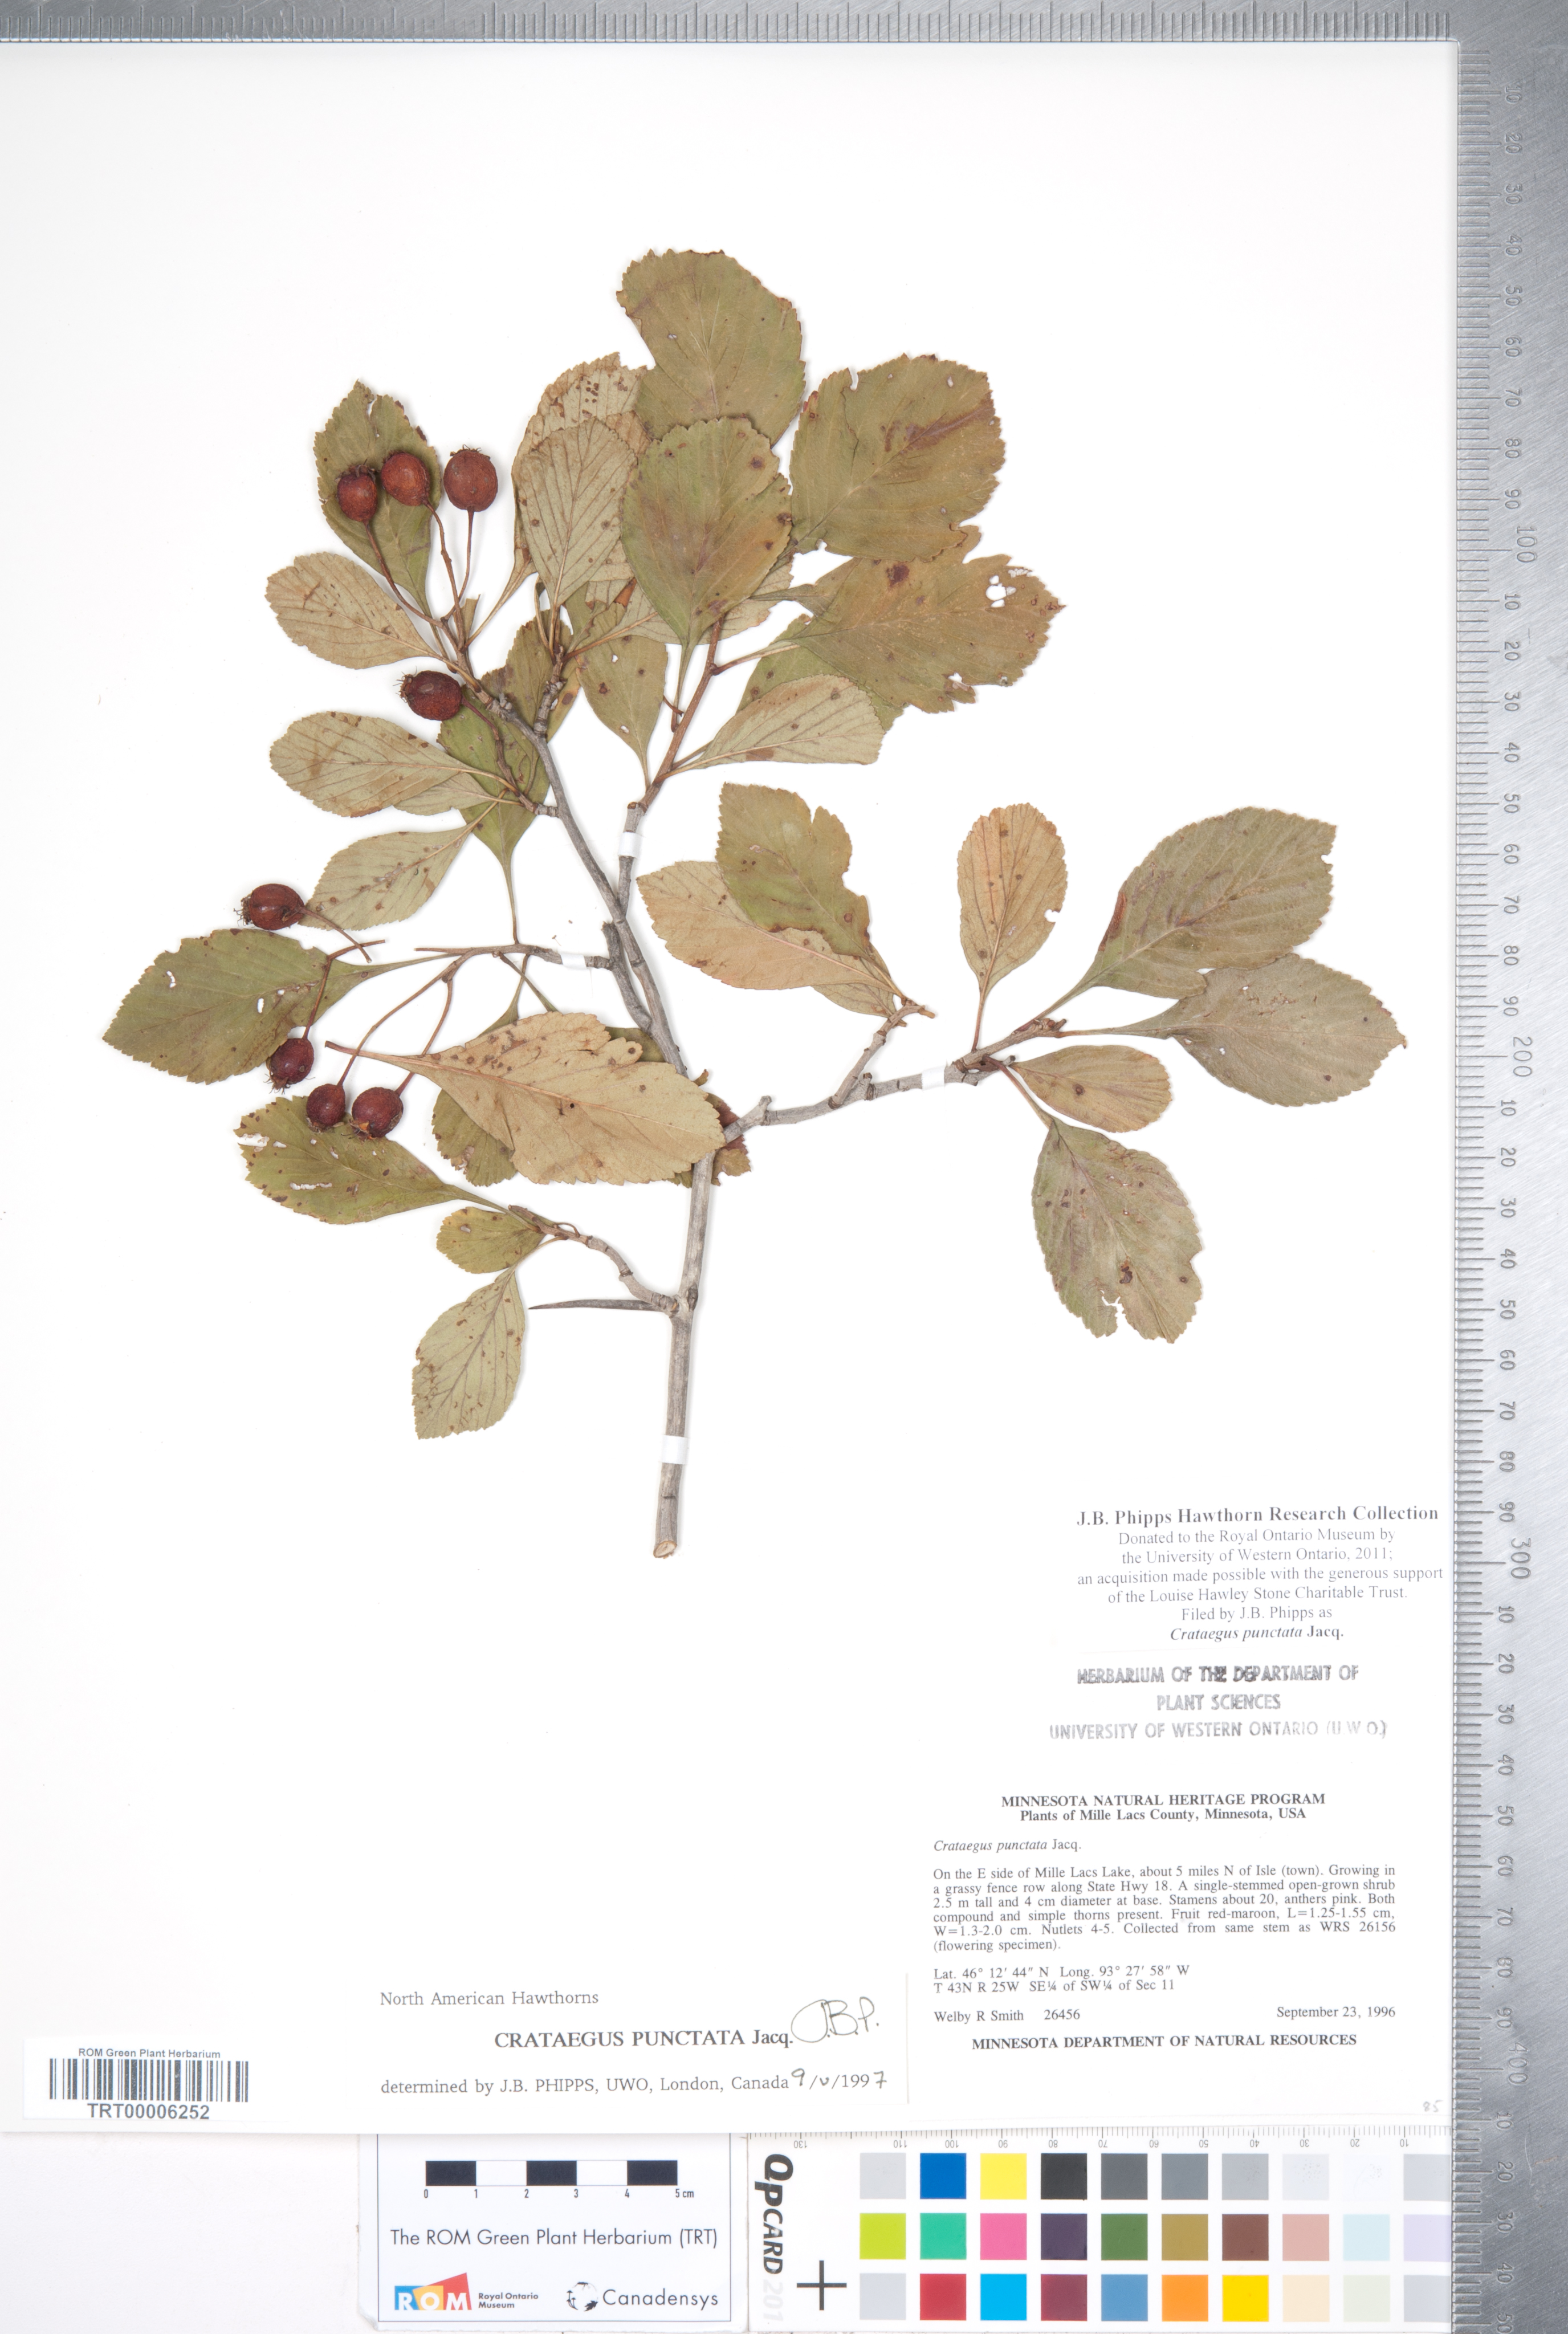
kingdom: Plantae
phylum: Tracheophyta
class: Magnoliopsida
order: Rosales
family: Rosaceae
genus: Crataegus
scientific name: Crataegus punctata
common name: Dotted hawthorn
